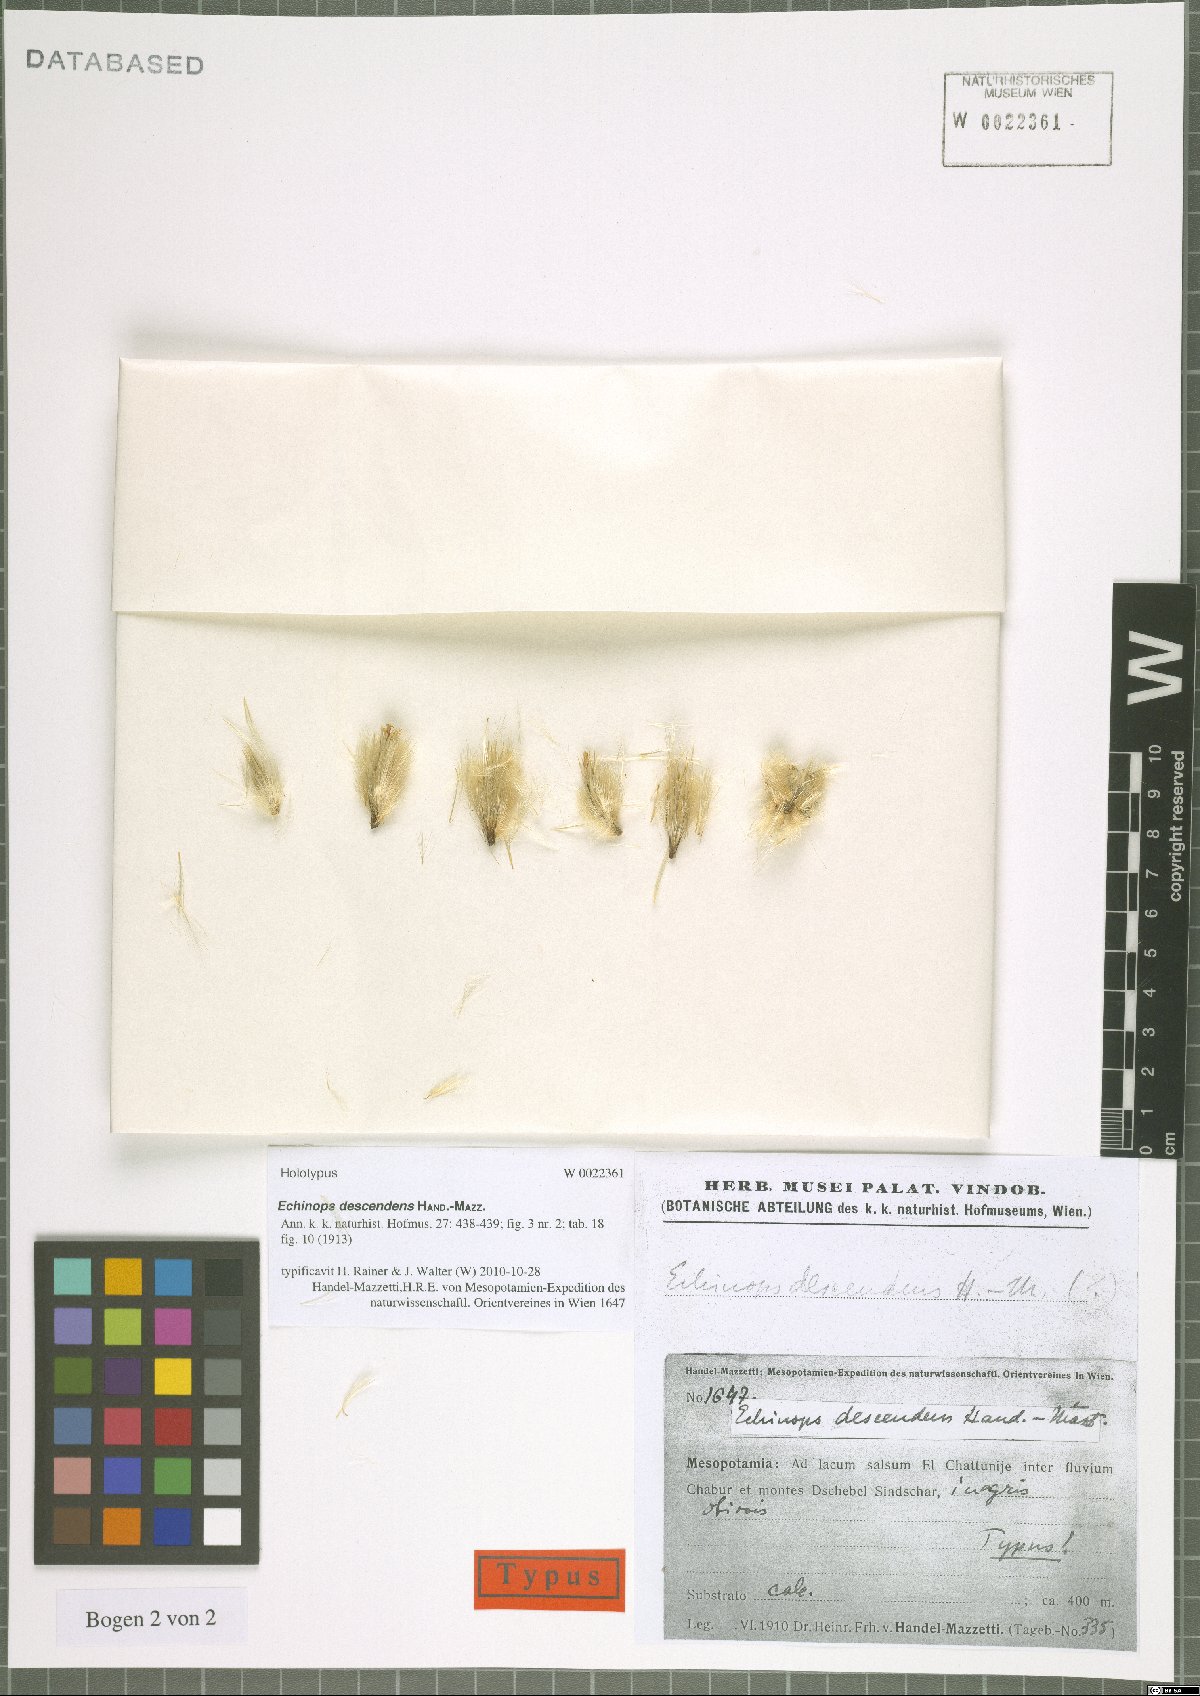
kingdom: Plantae
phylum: Tracheophyta
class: Magnoliopsida
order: Asterales
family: Asteraceae
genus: Echinops
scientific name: Echinops descendens
